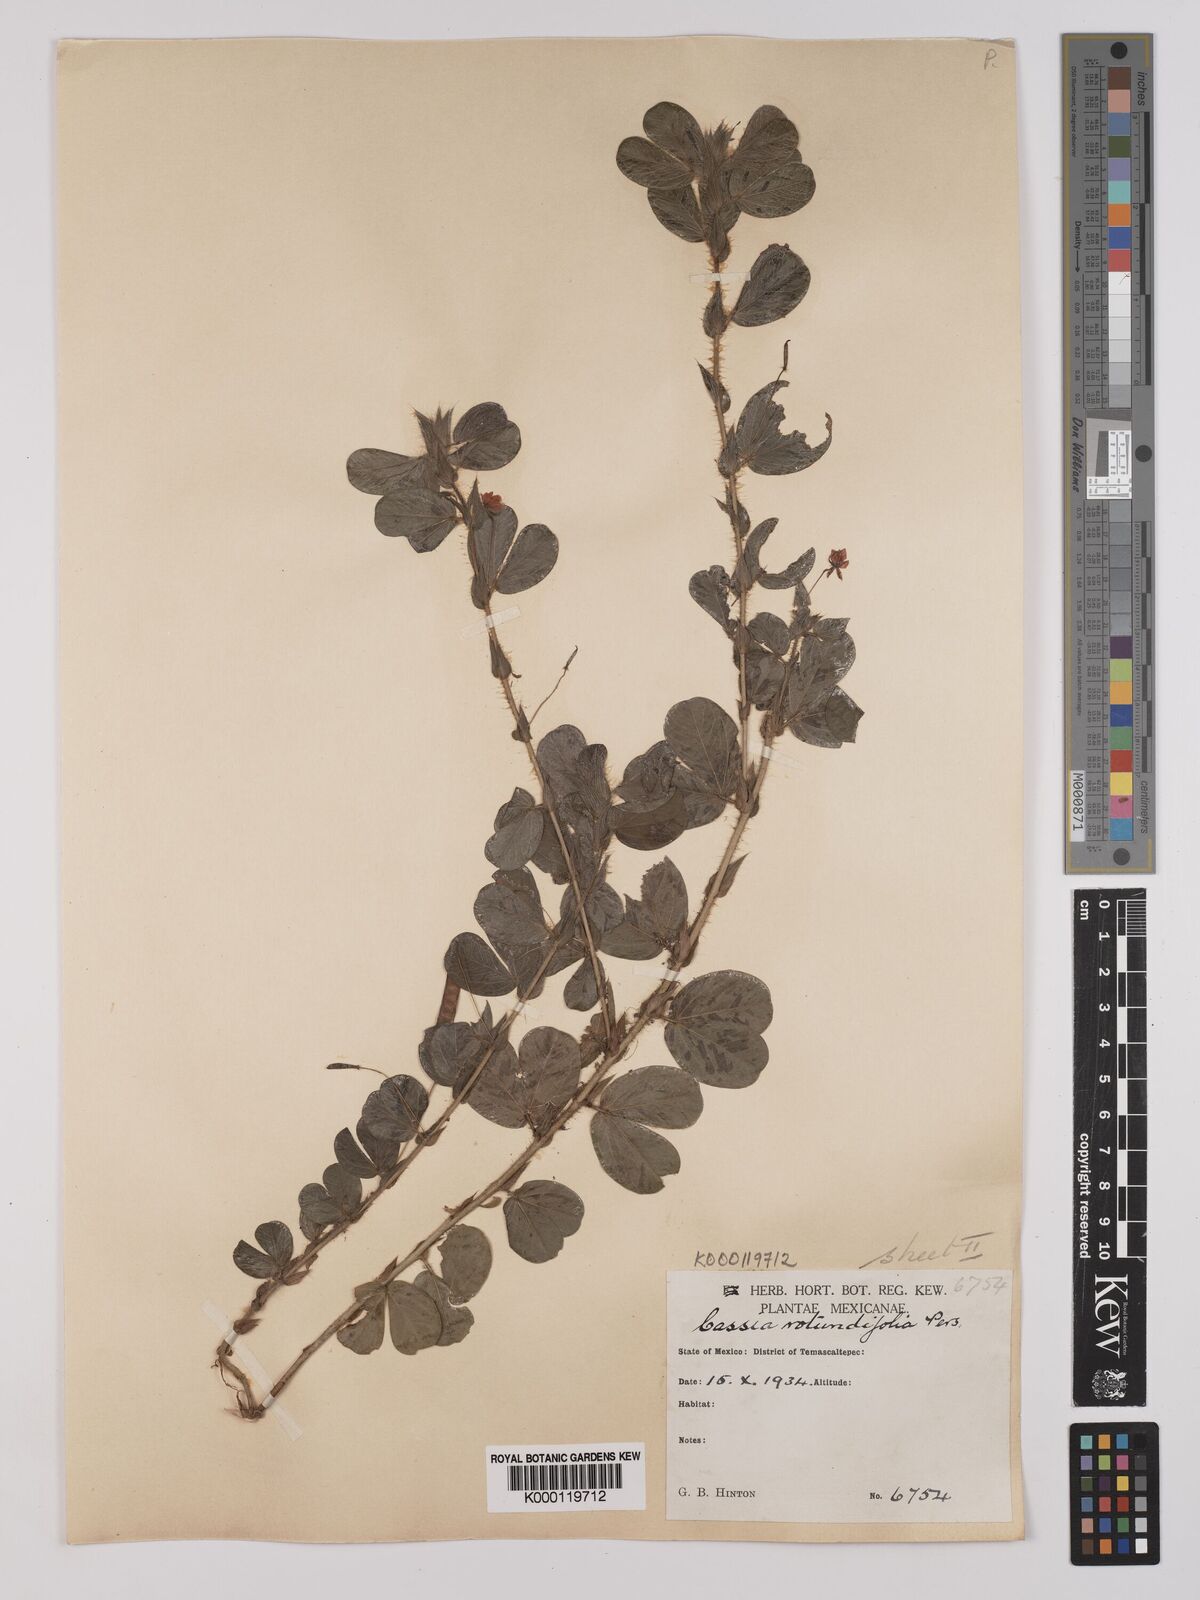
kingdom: Plantae
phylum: Tracheophyta
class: Magnoliopsida
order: Fabales
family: Fabaceae
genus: Chamaecrista
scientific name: Chamaecrista rotundifolia
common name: Round-leaf cassia
